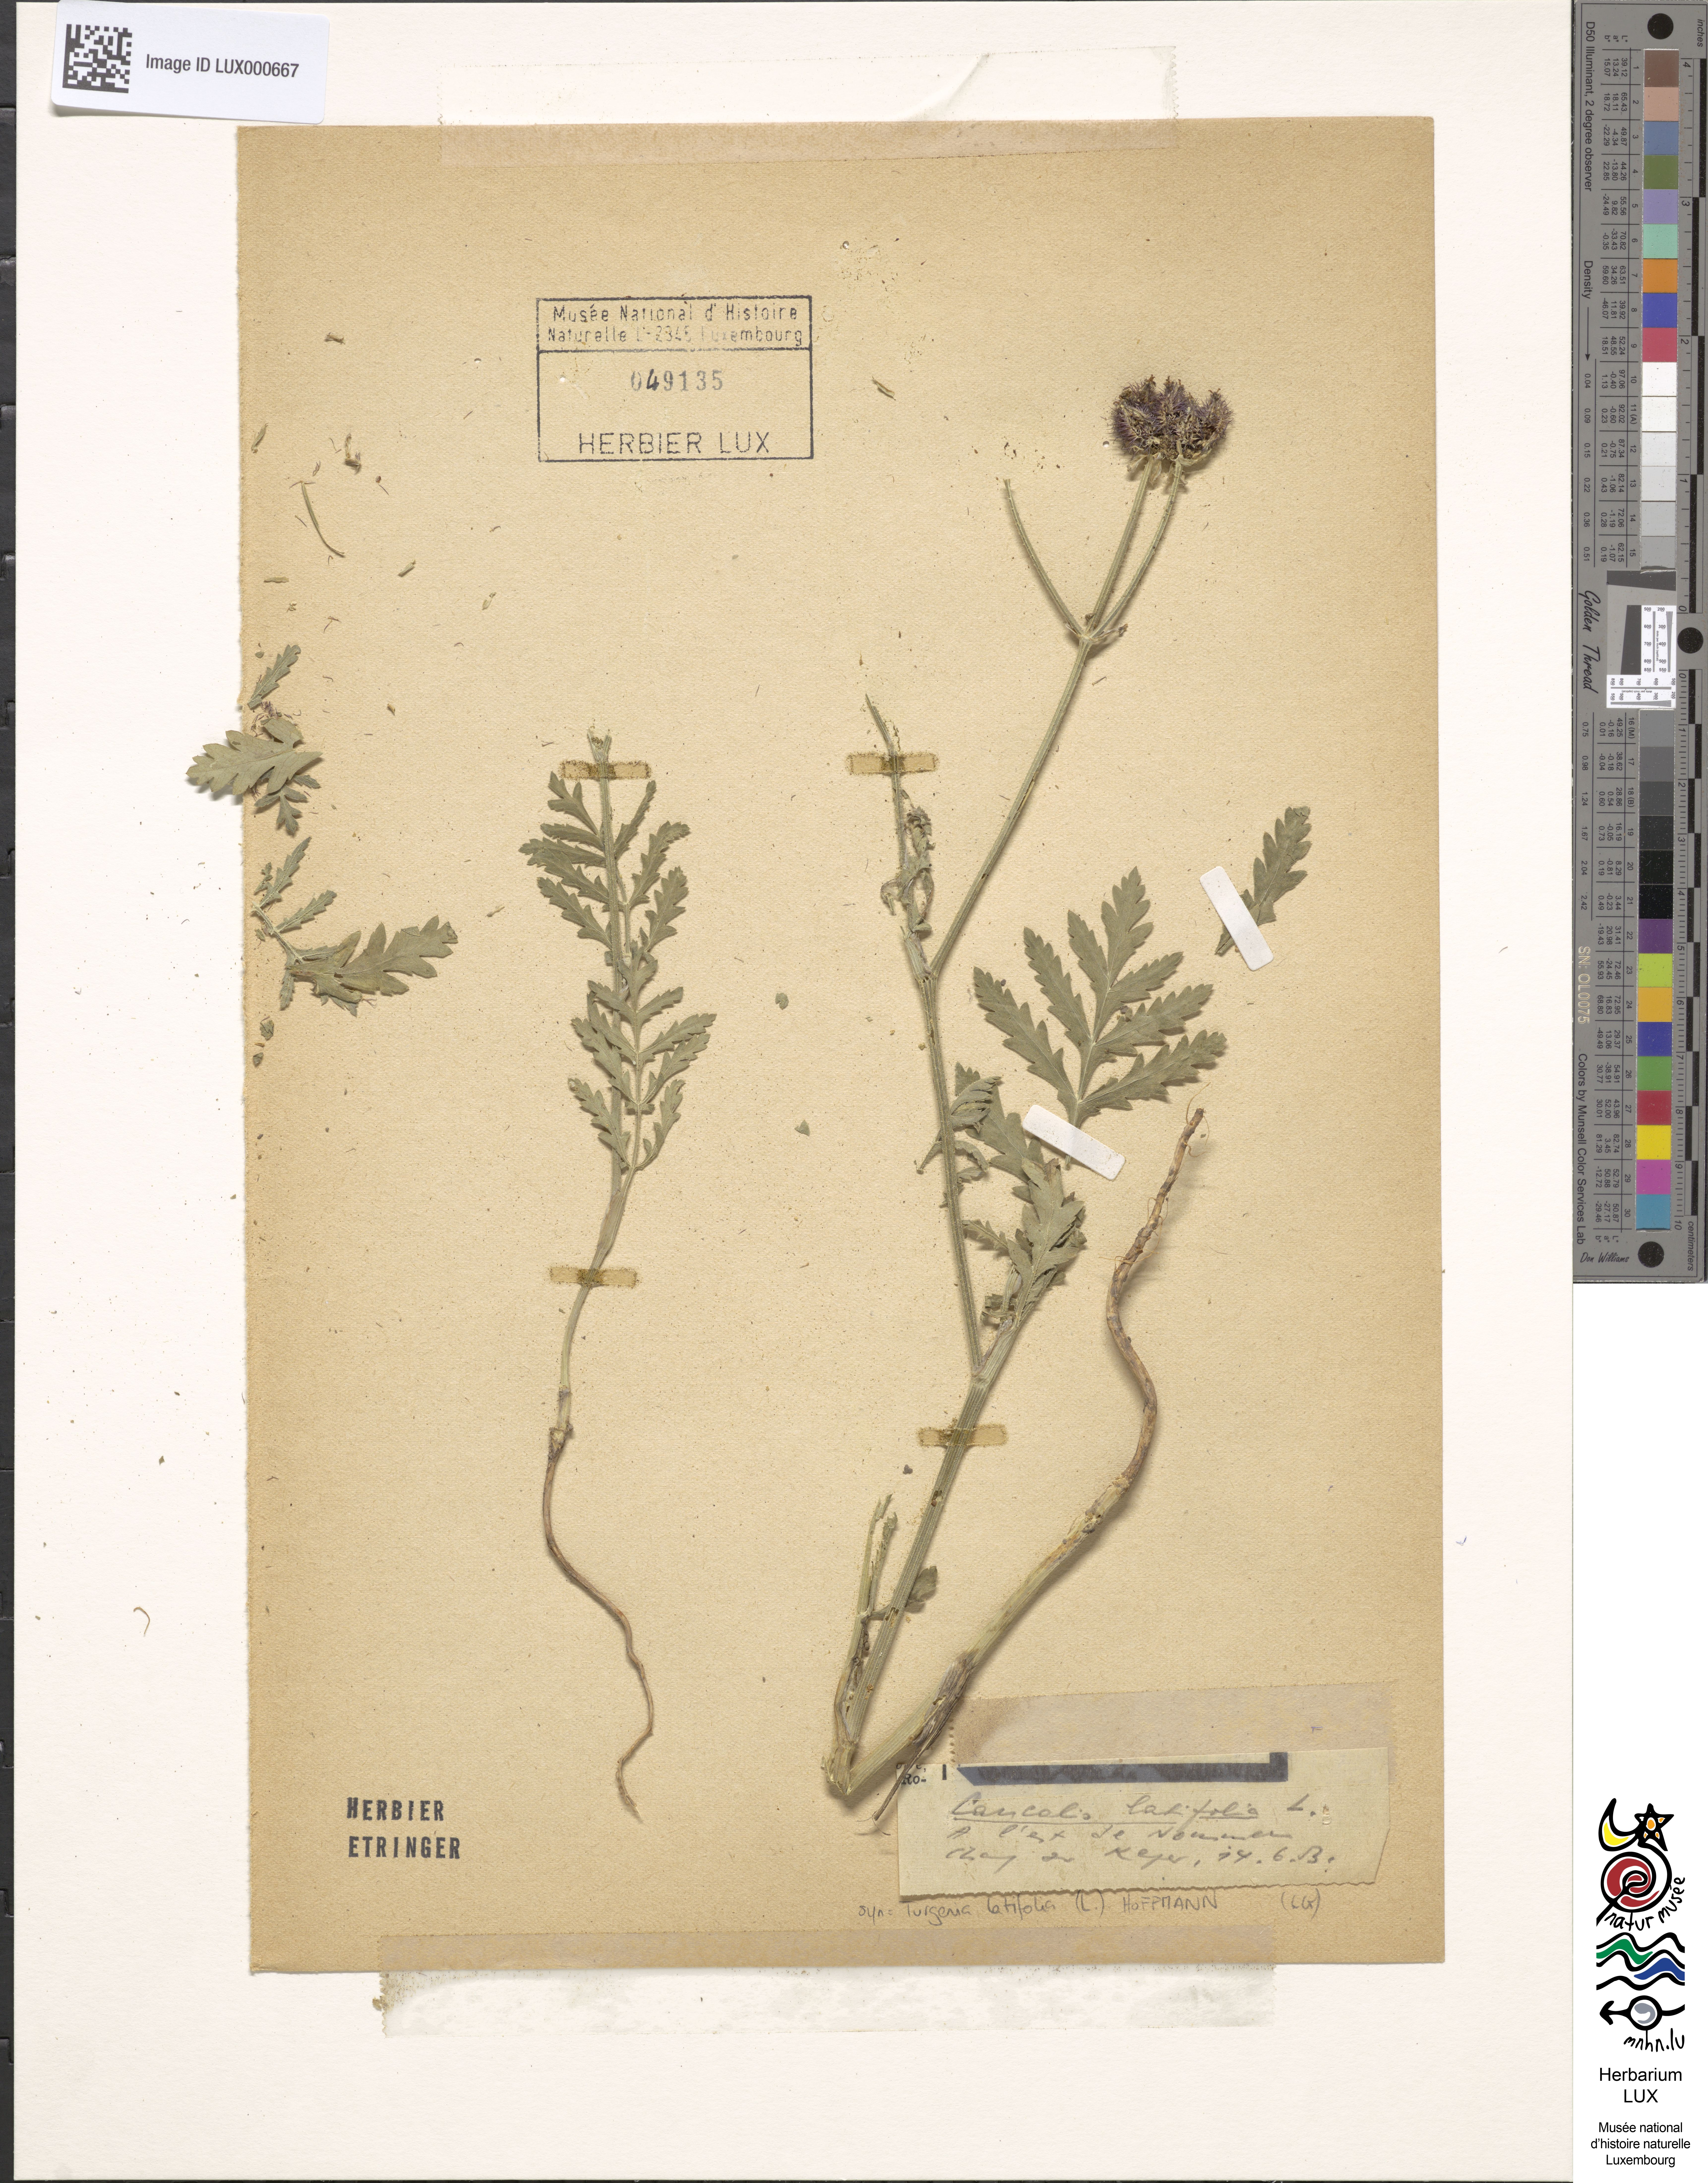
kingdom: Plantae
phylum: Tracheophyta
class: Magnoliopsida
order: Apiales
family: Apiaceae
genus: Turgenia
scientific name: Turgenia latifolia
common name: Greater bur-parsley
